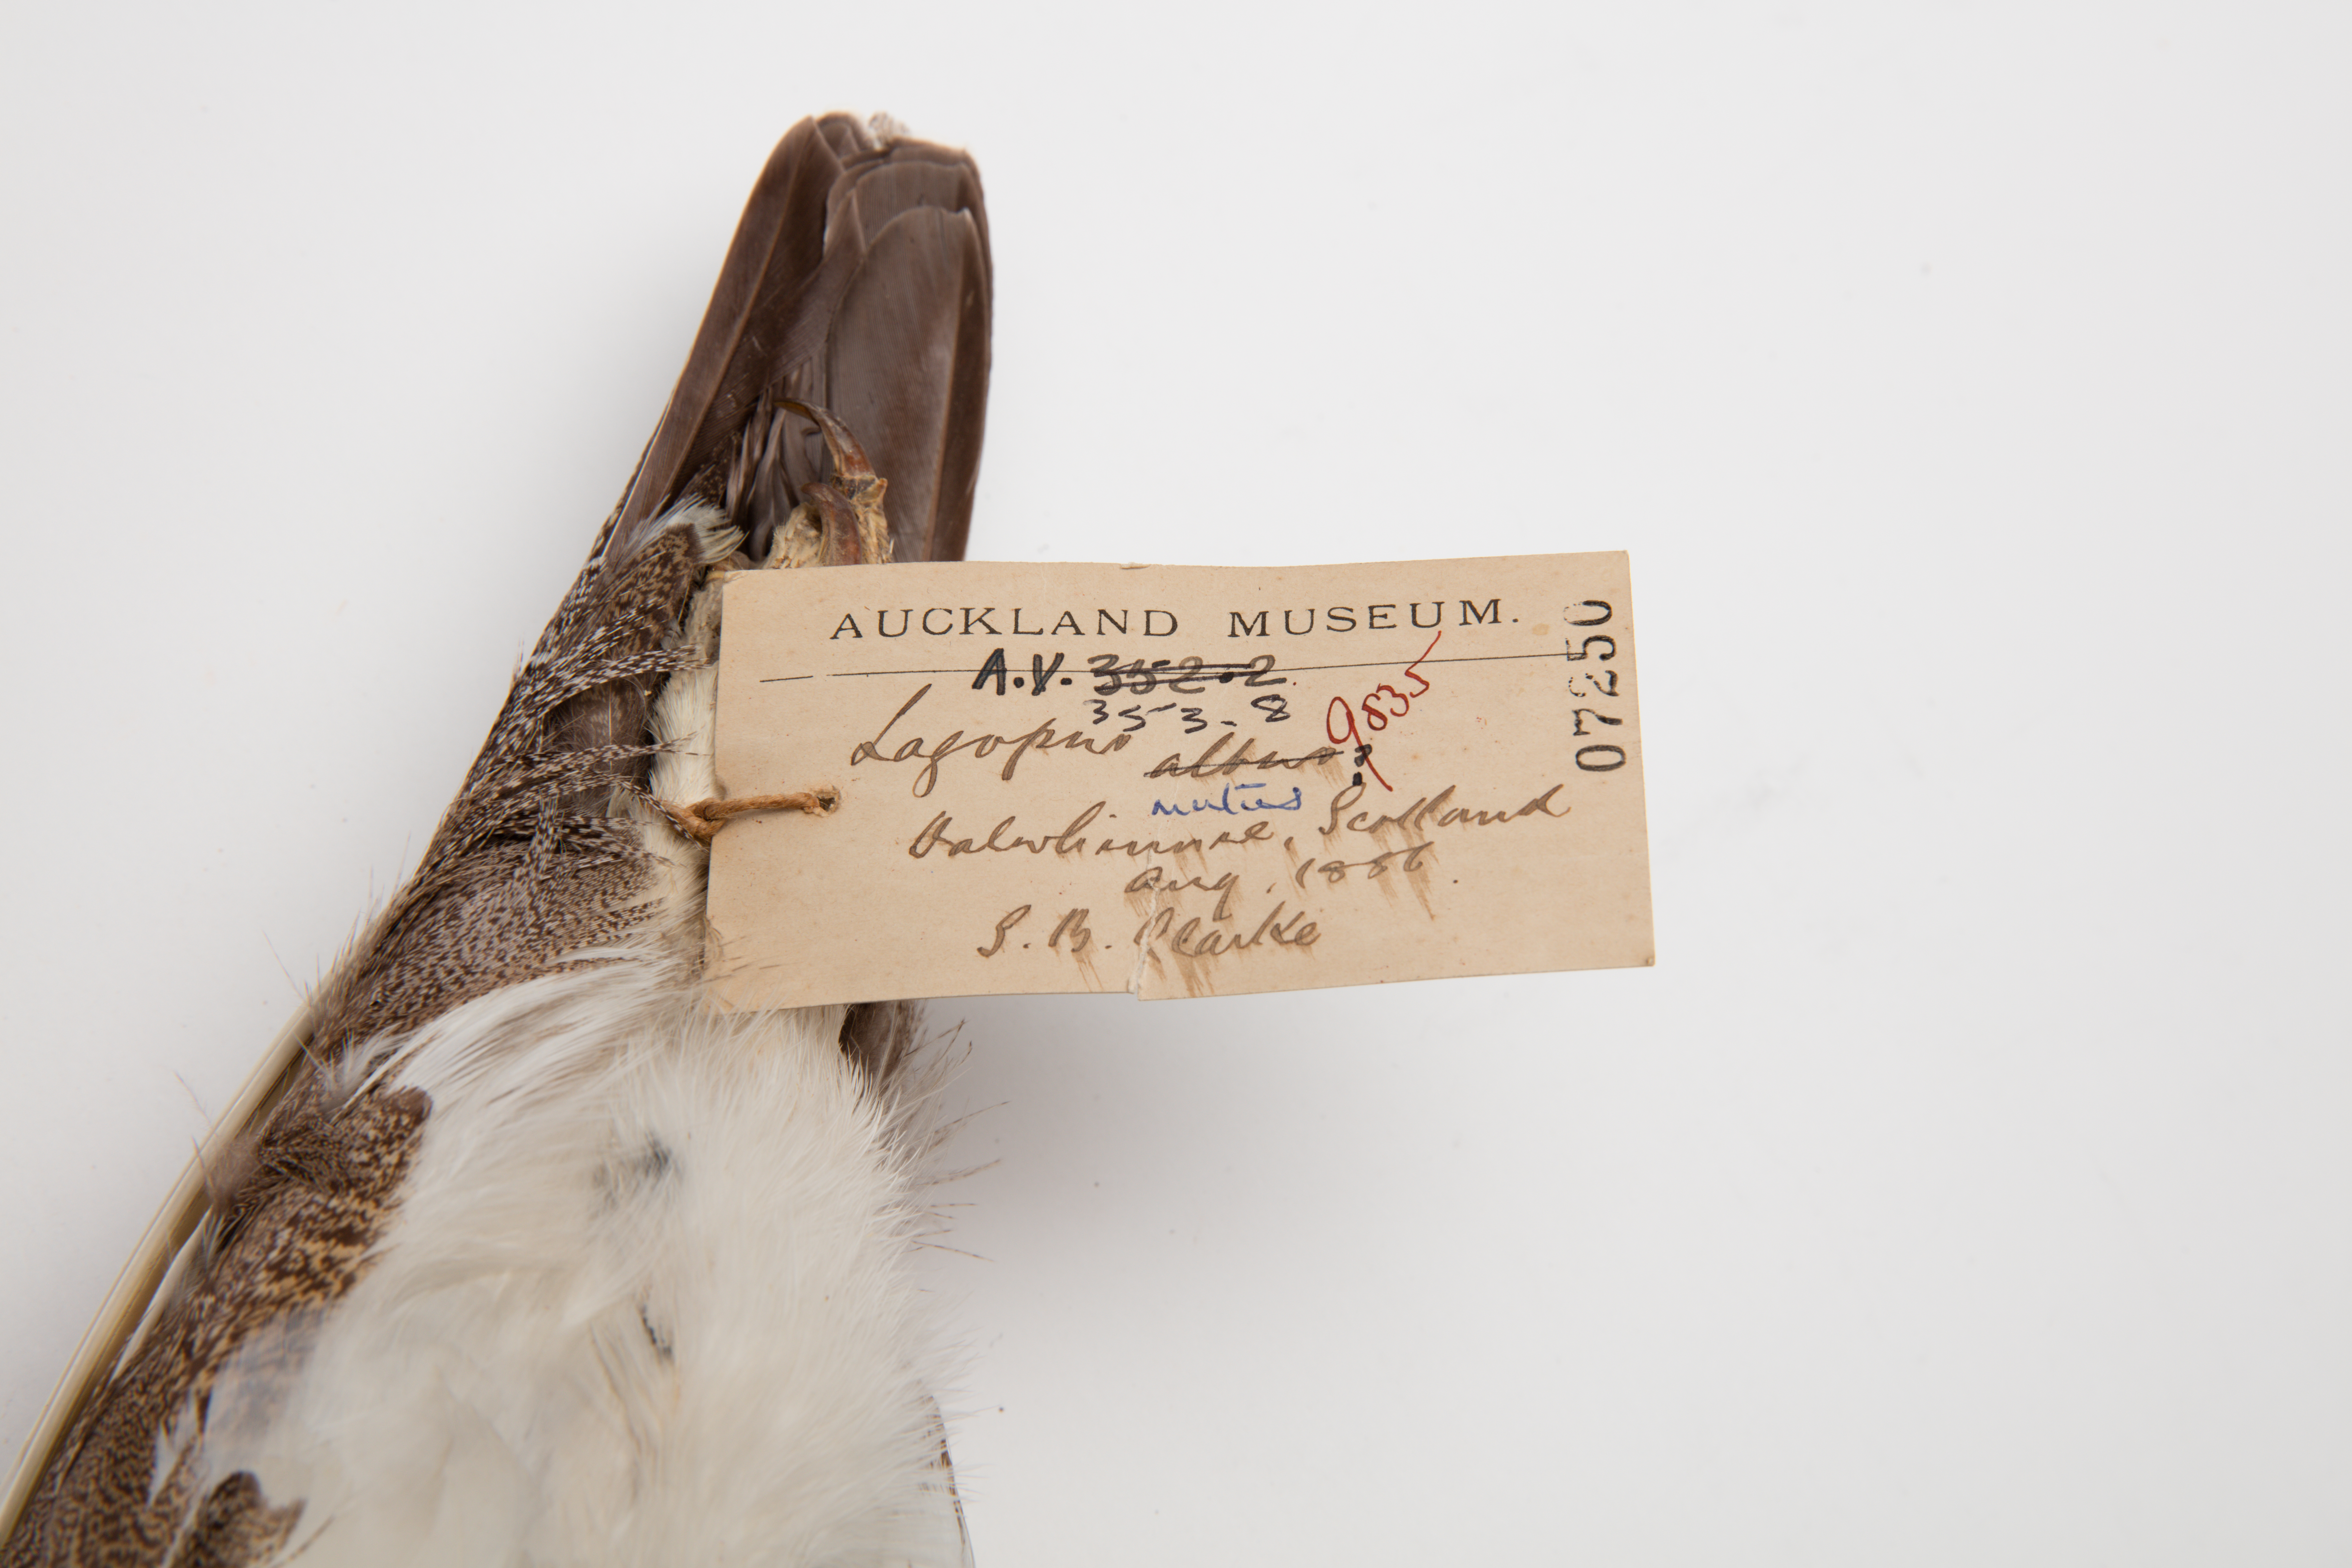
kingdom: Animalia
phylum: Chordata
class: Aves
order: Galliformes
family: Phasianidae
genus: Lagopus
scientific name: Lagopus muta
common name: Rock ptarmigan
